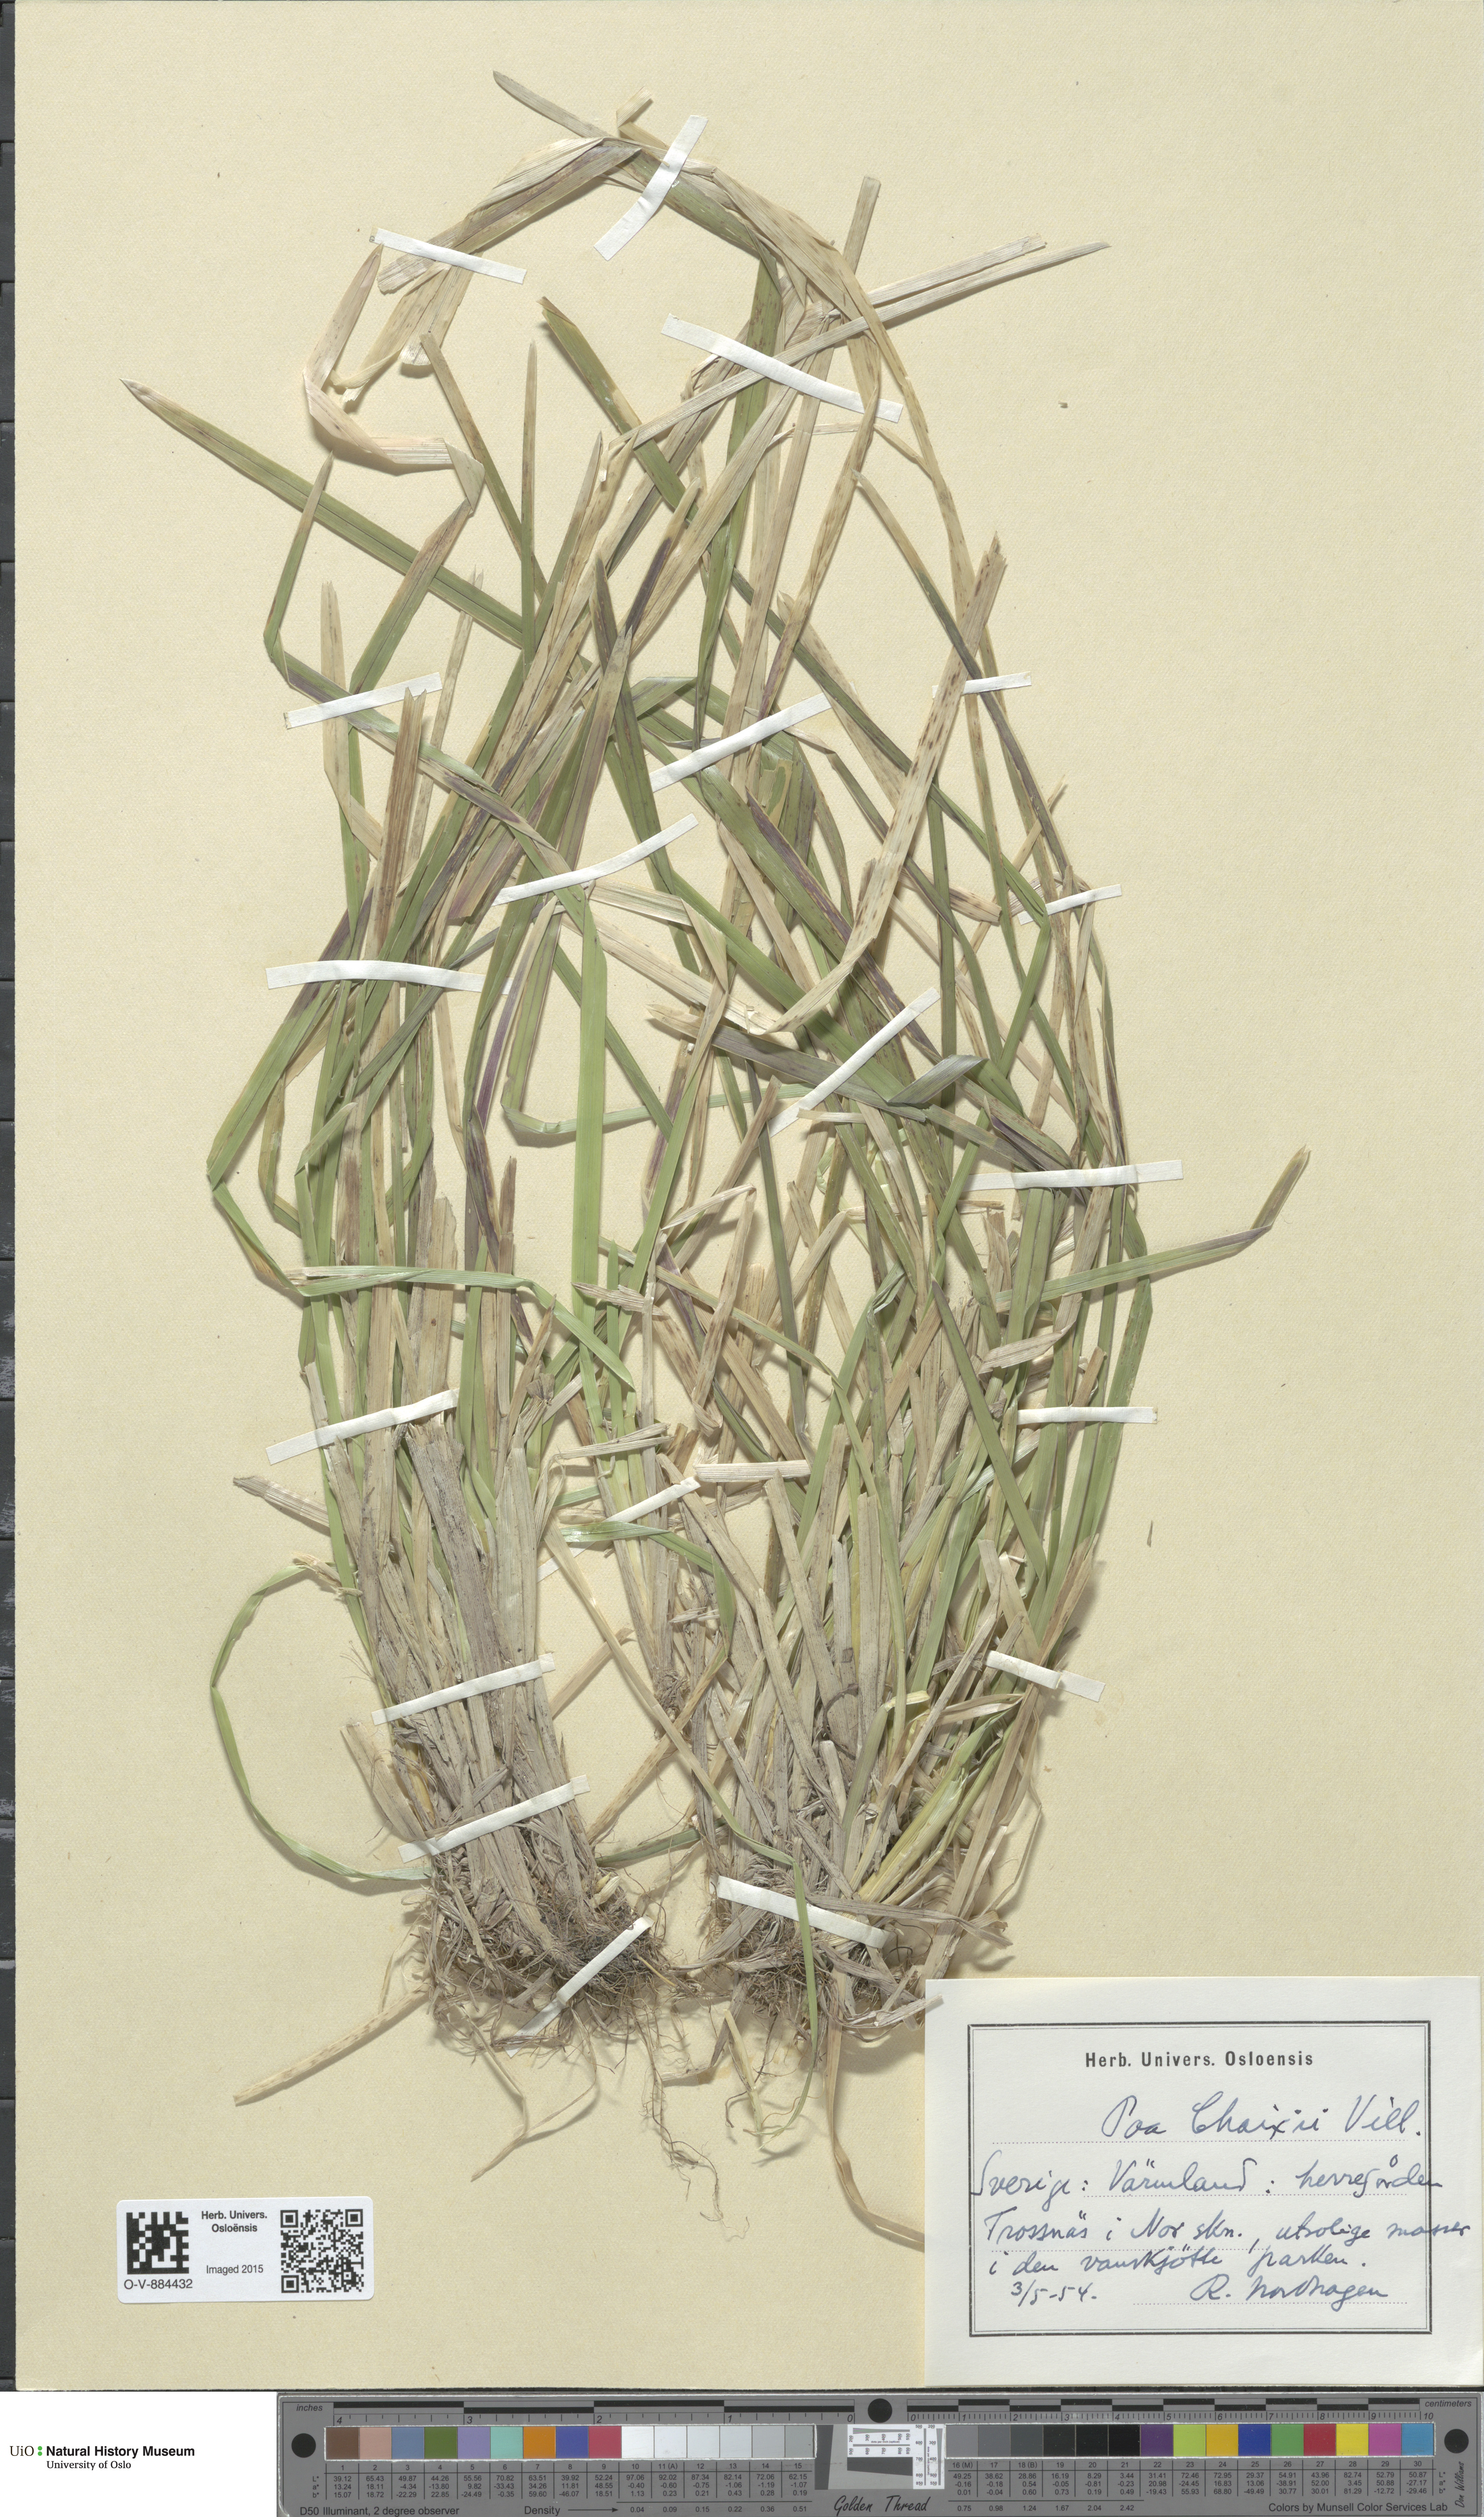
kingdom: Plantae
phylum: Tracheophyta
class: Liliopsida
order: Poales
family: Poaceae
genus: Poa
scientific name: Poa chaixii
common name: Broad-leaved meadow-grass
